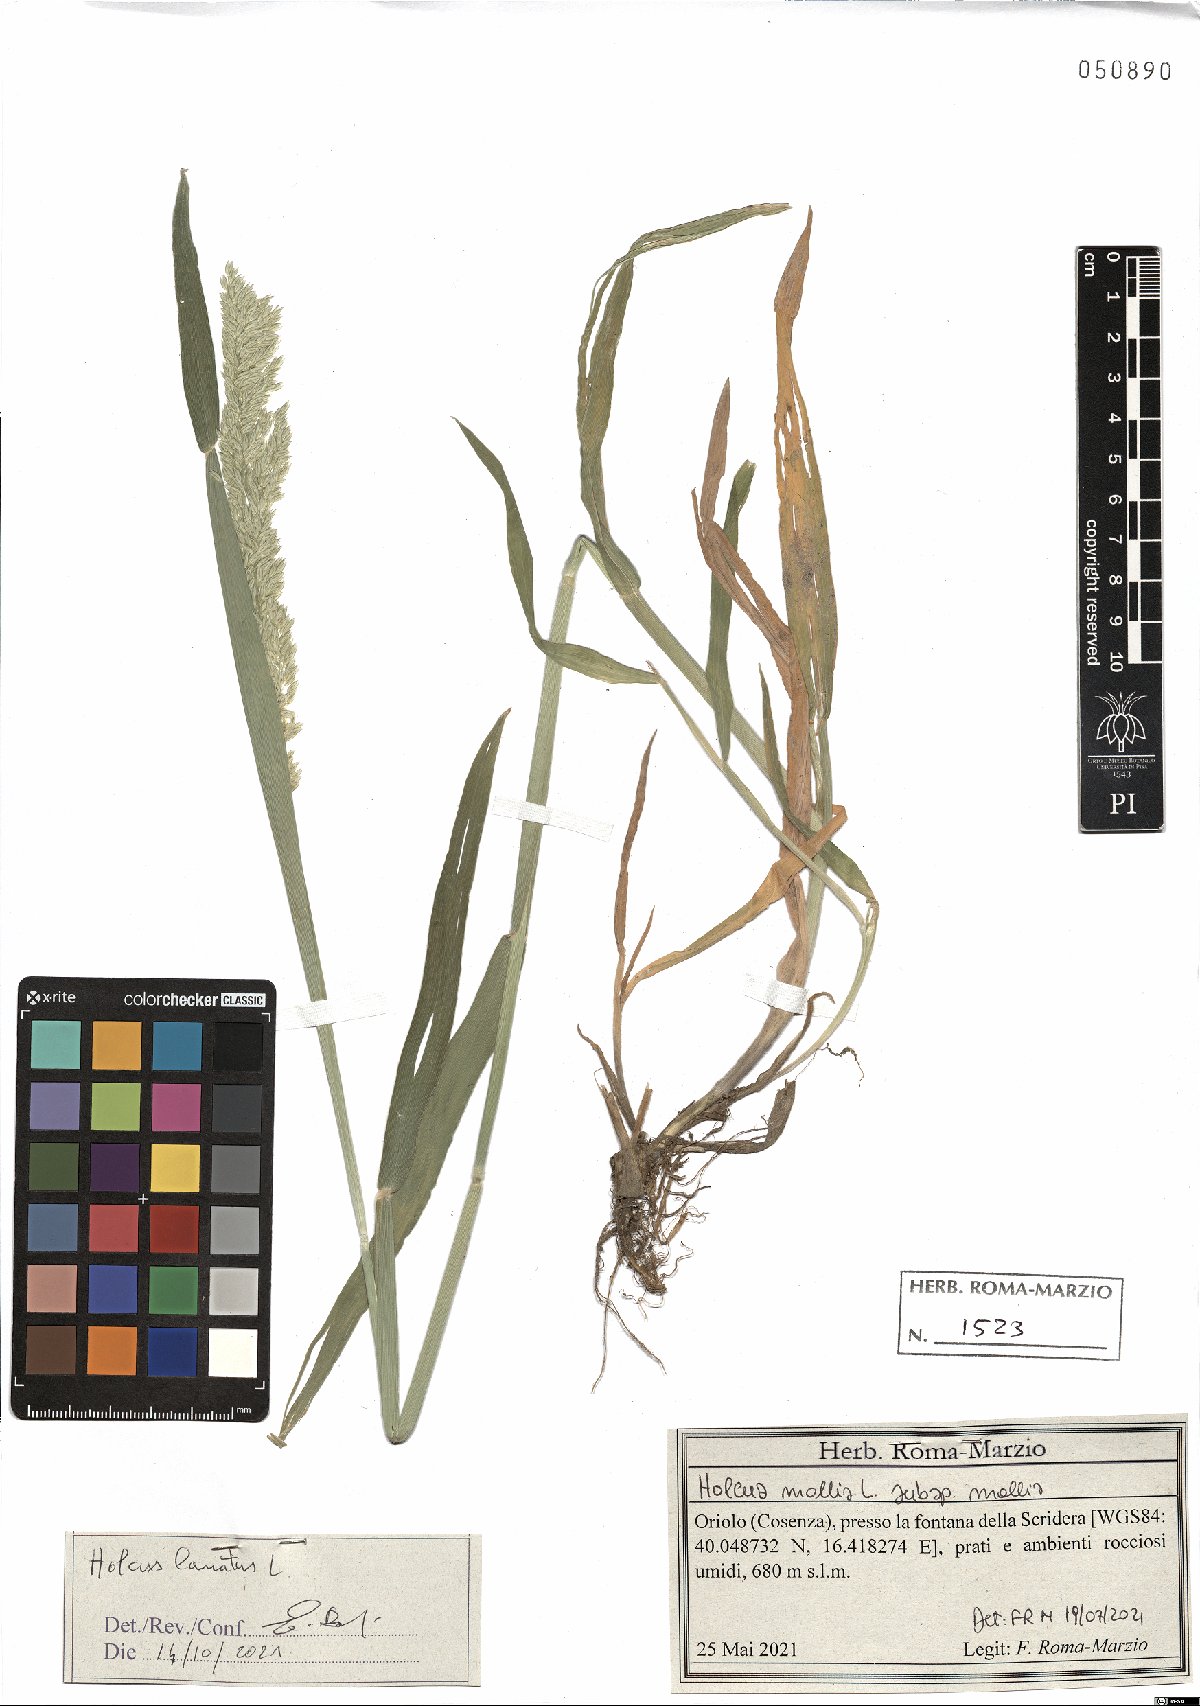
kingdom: Plantae
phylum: Tracheophyta
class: Liliopsida
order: Poales
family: Poaceae
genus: Holcus
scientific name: Holcus lanatus
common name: Yorkshire-fog
